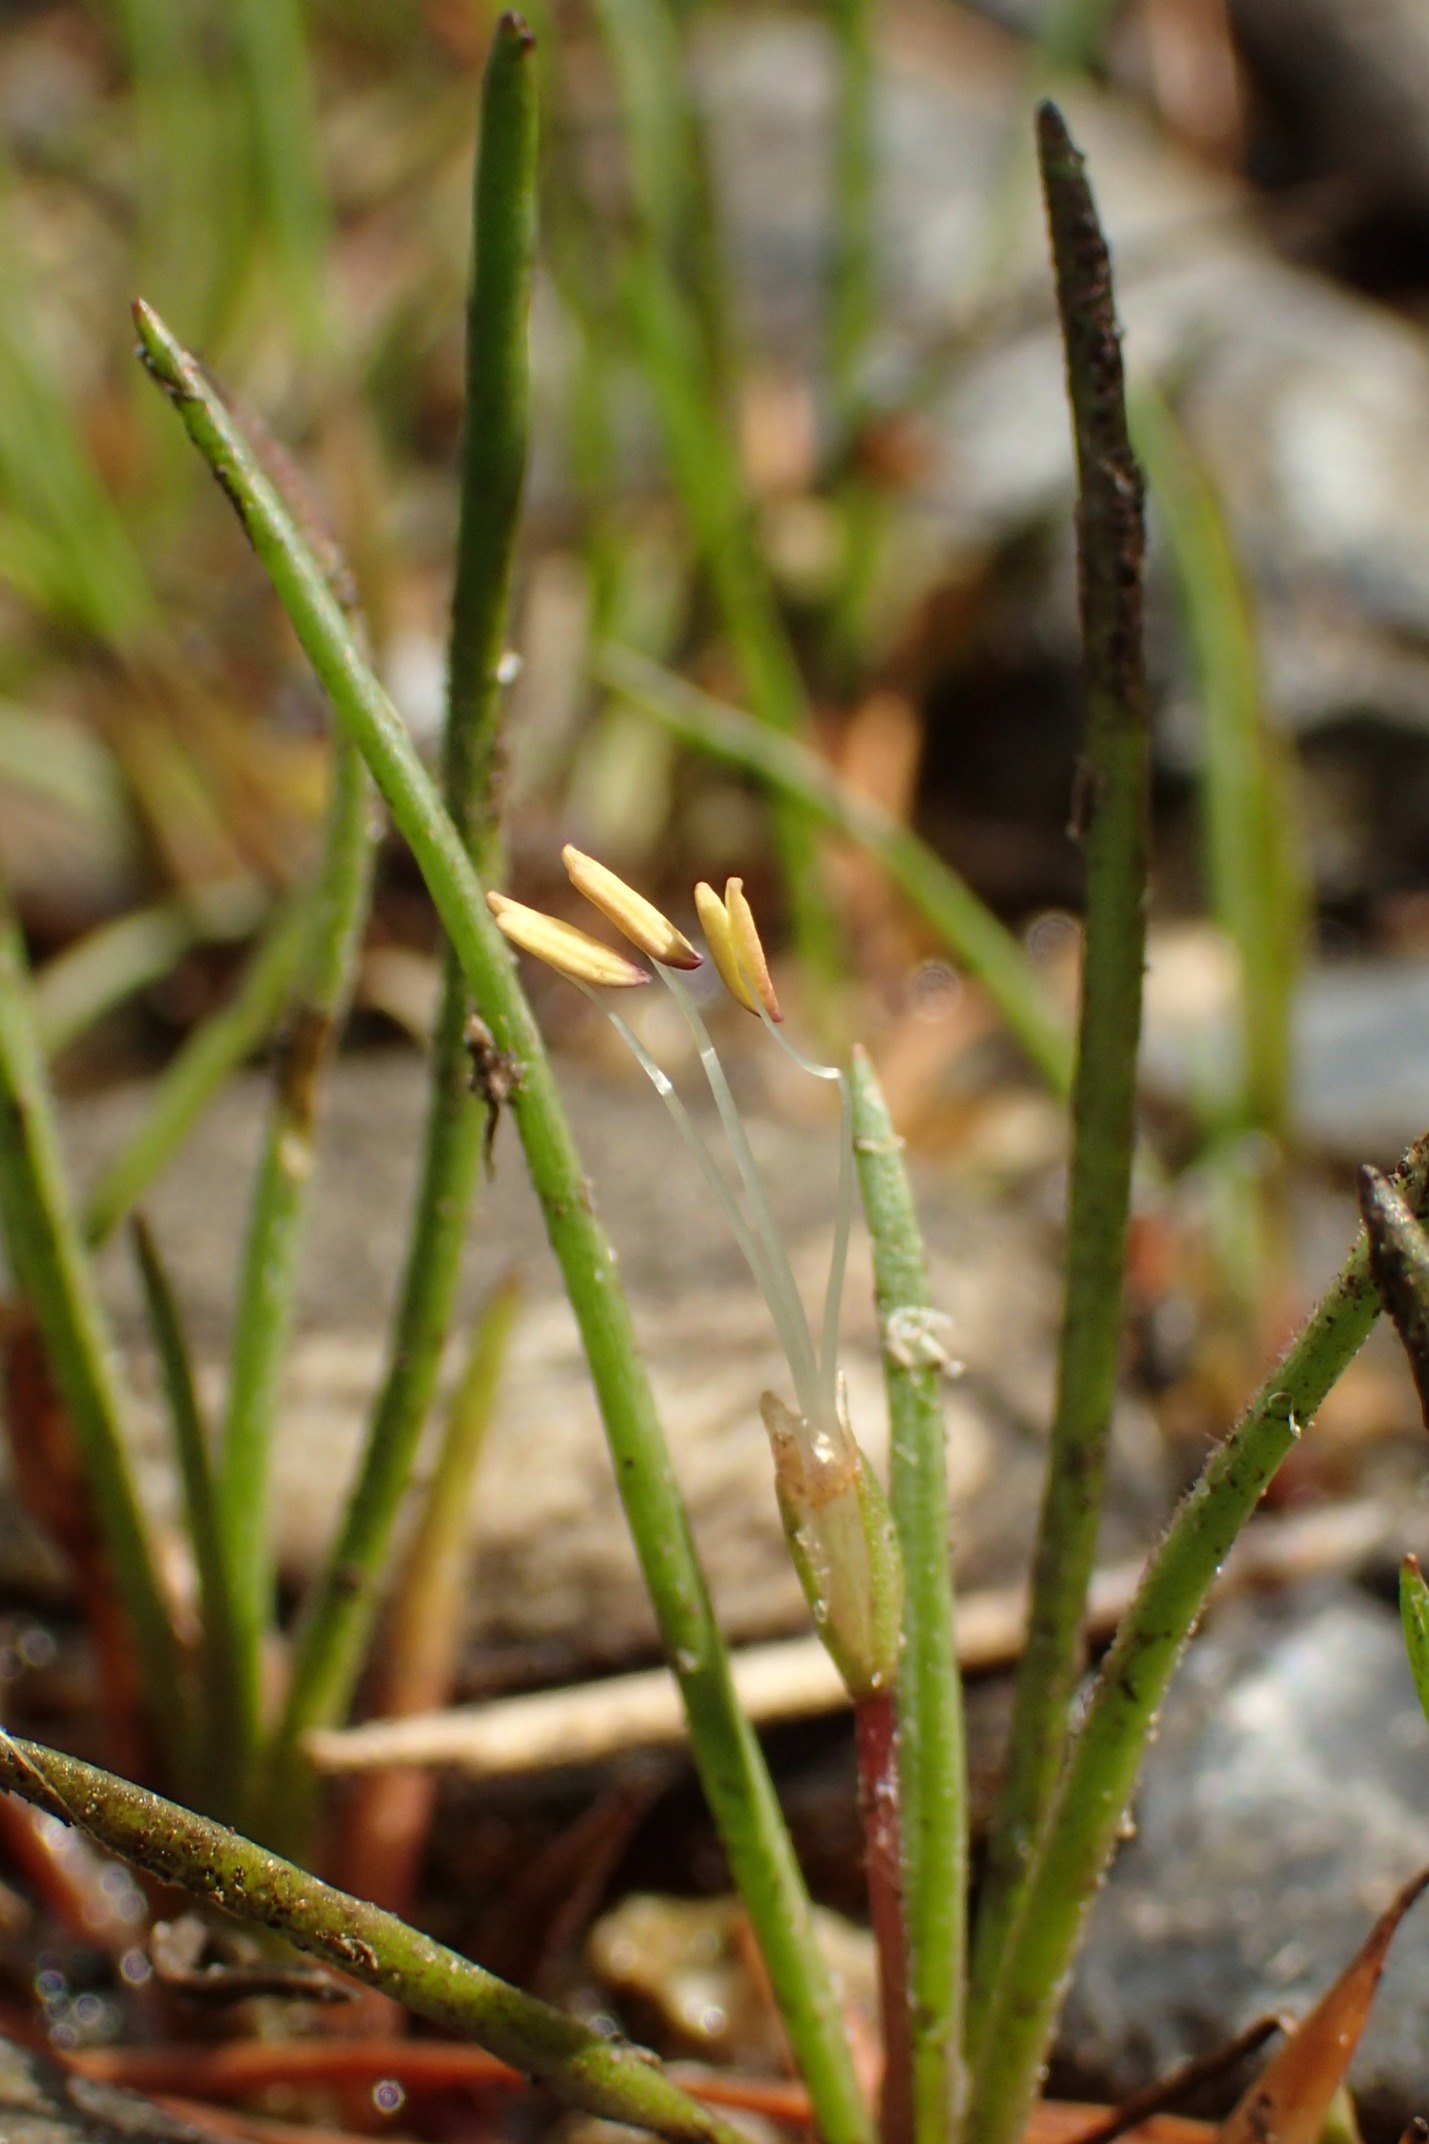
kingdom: Plantae
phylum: Tracheophyta
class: Magnoliopsida
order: Lamiales
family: Plantaginaceae
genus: Littorella
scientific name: Littorella uniflora
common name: Strandbo
